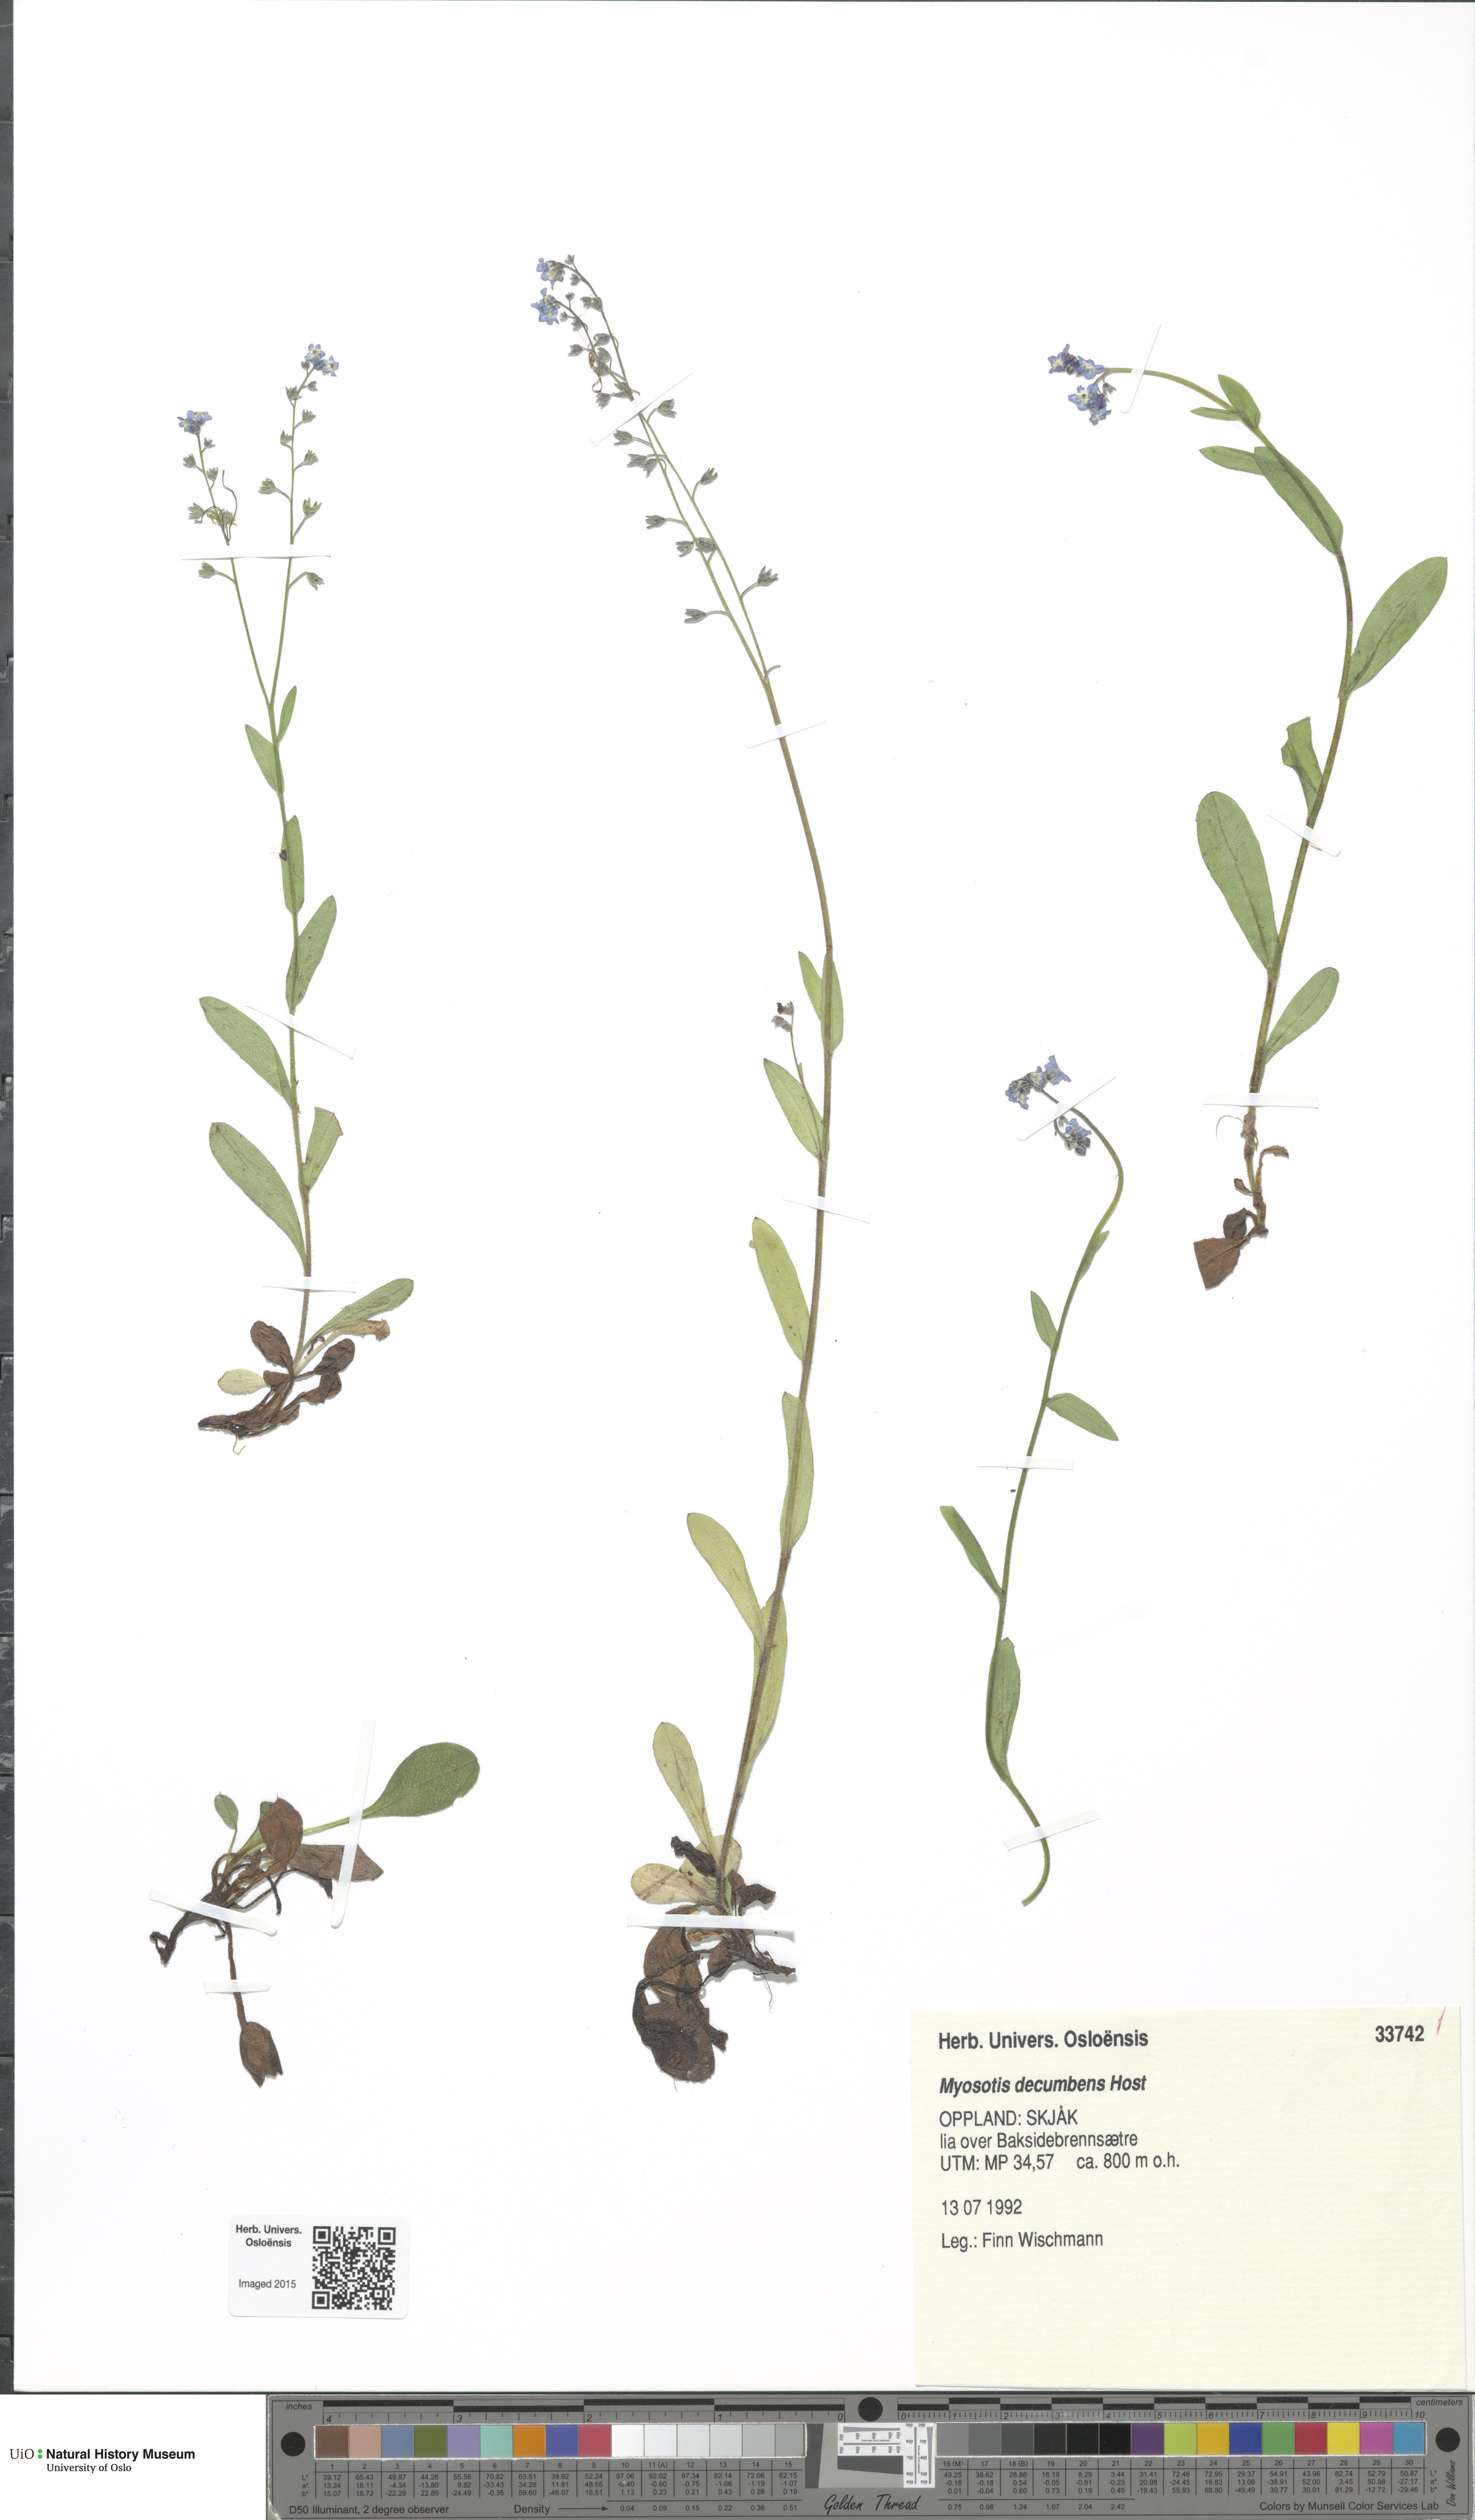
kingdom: Plantae
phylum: Tracheophyta
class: Magnoliopsida
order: Boraginales
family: Boraginaceae
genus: Myosotis
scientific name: Myosotis decumbens
